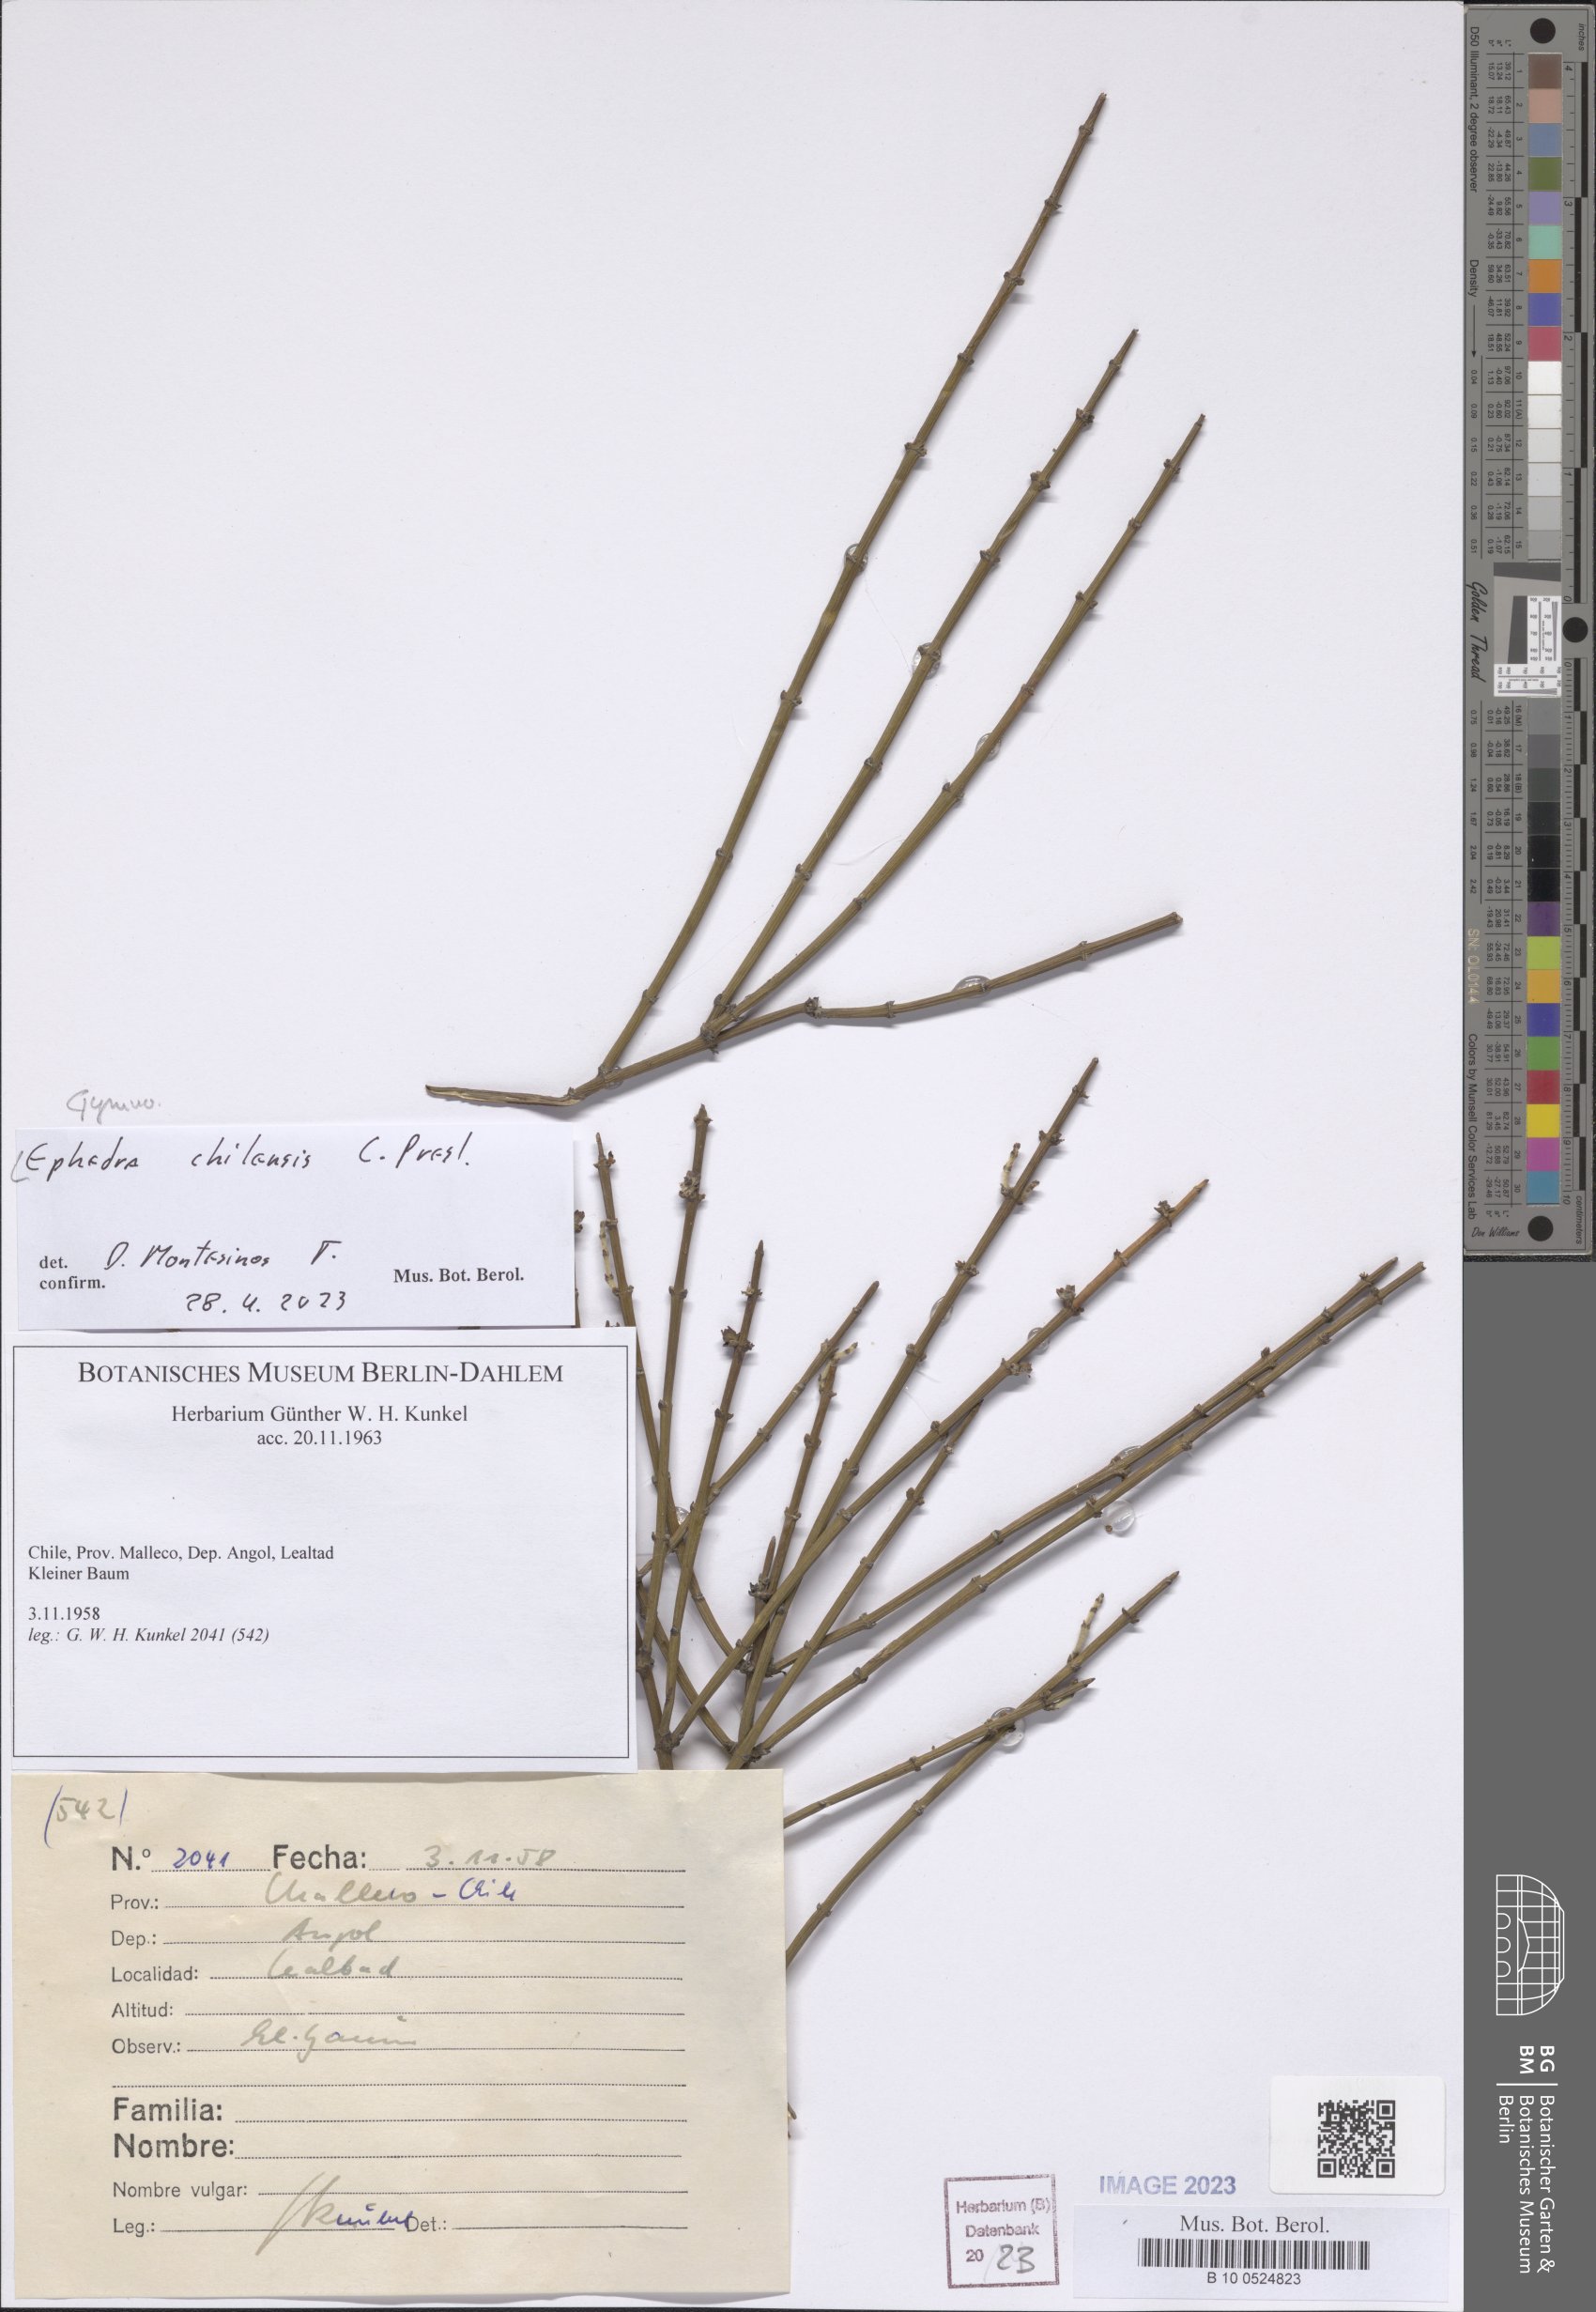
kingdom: Plantae
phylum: Tracheophyta
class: Gnetopsida
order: Ephedrales
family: Ephedraceae
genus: Ephedra
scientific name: Ephedra chilensis
